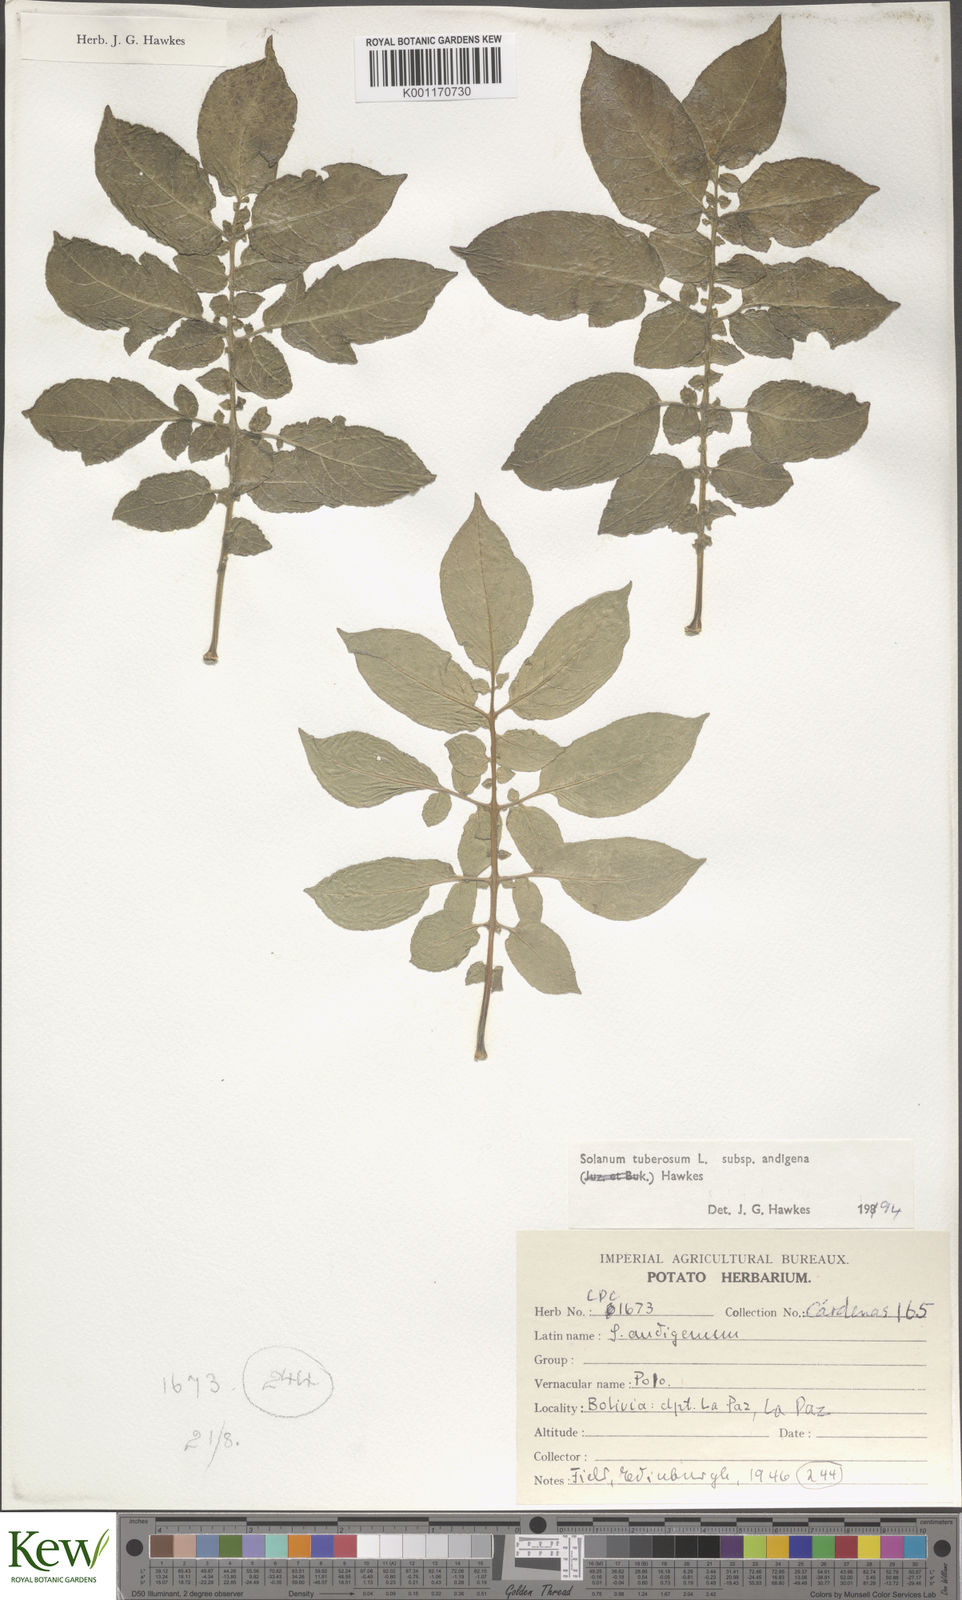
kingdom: Plantae
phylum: Tracheophyta
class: Magnoliopsida
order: Solanales
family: Solanaceae
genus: Solanum
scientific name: Solanum tuberosum
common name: Potato
